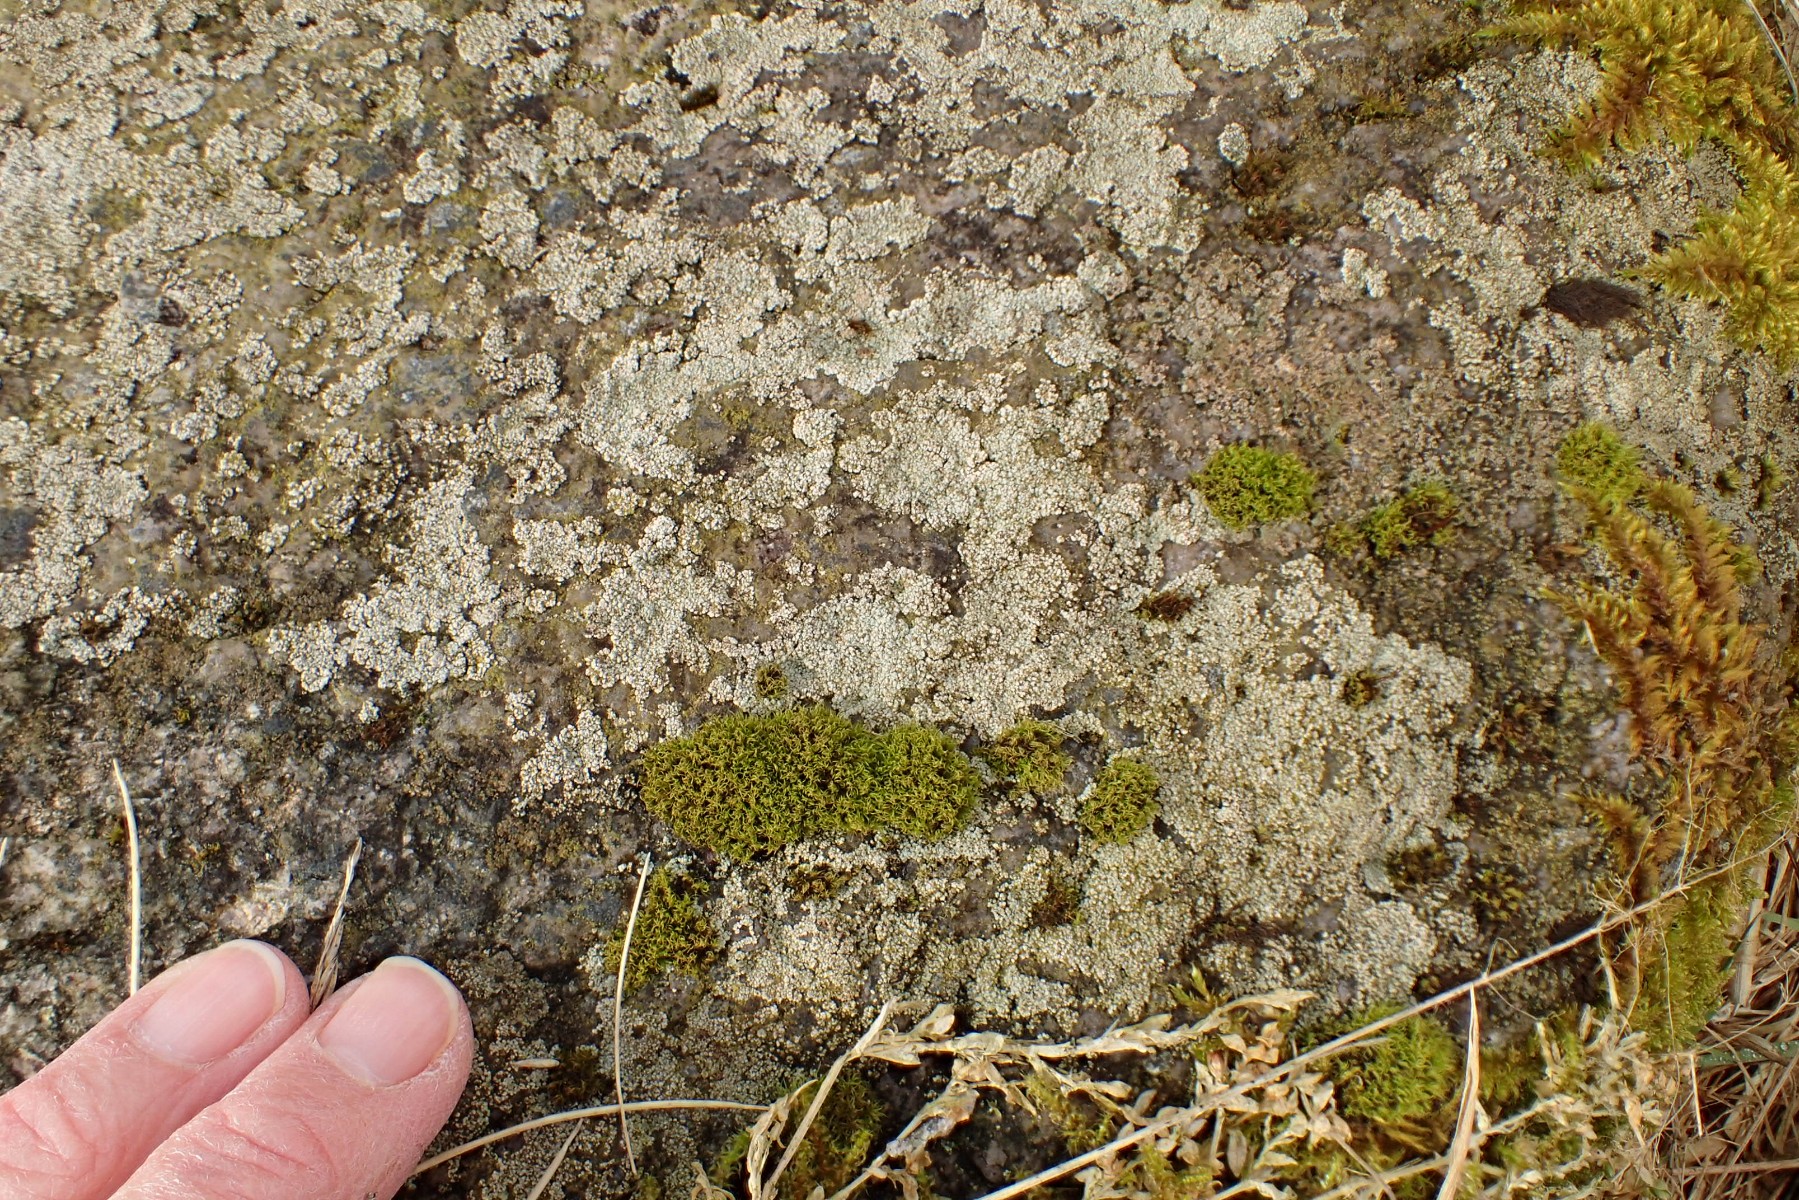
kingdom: Fungi
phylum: Ascomycota
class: Lecanoromycetes
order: Baeomycetales
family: Trapeliaceae
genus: Gallowayiopsis
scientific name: Gallowayiopsis glebulosa
